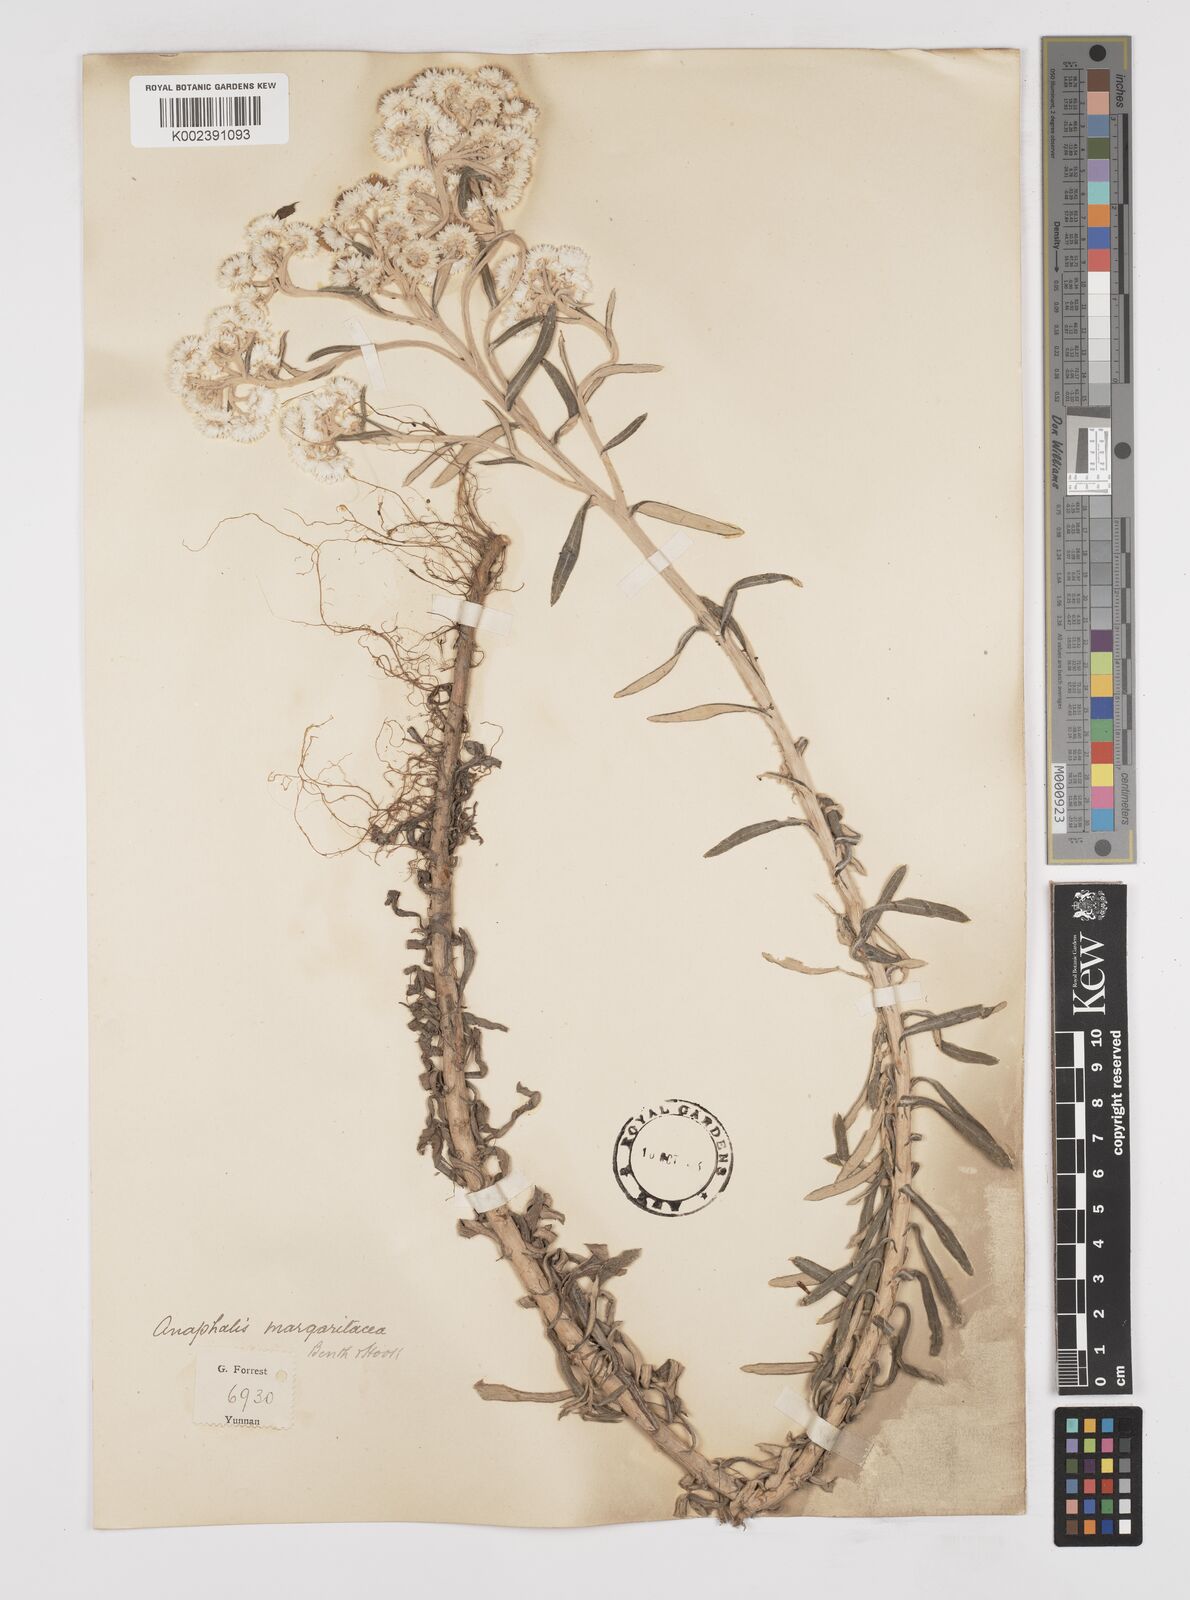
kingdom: Plantae
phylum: Tracheophyta
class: Magnoliopsida
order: Asterales
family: Asteraceae
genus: Anaphalis
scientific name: Anaphalis margaritacea
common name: Pearly everlasting
